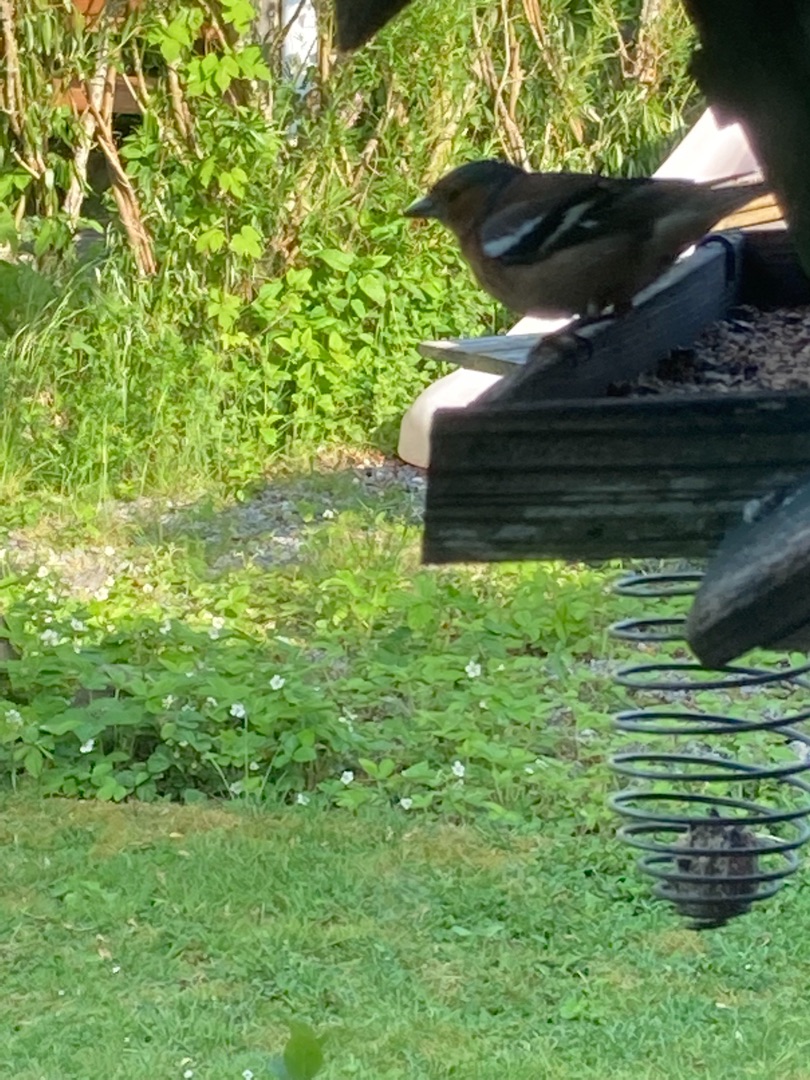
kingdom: Animalia
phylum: Chordata
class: Aves
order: Passeriformes
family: Fringillidae
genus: Fringilla
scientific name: Fringilla coelebs
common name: Bogfinke
